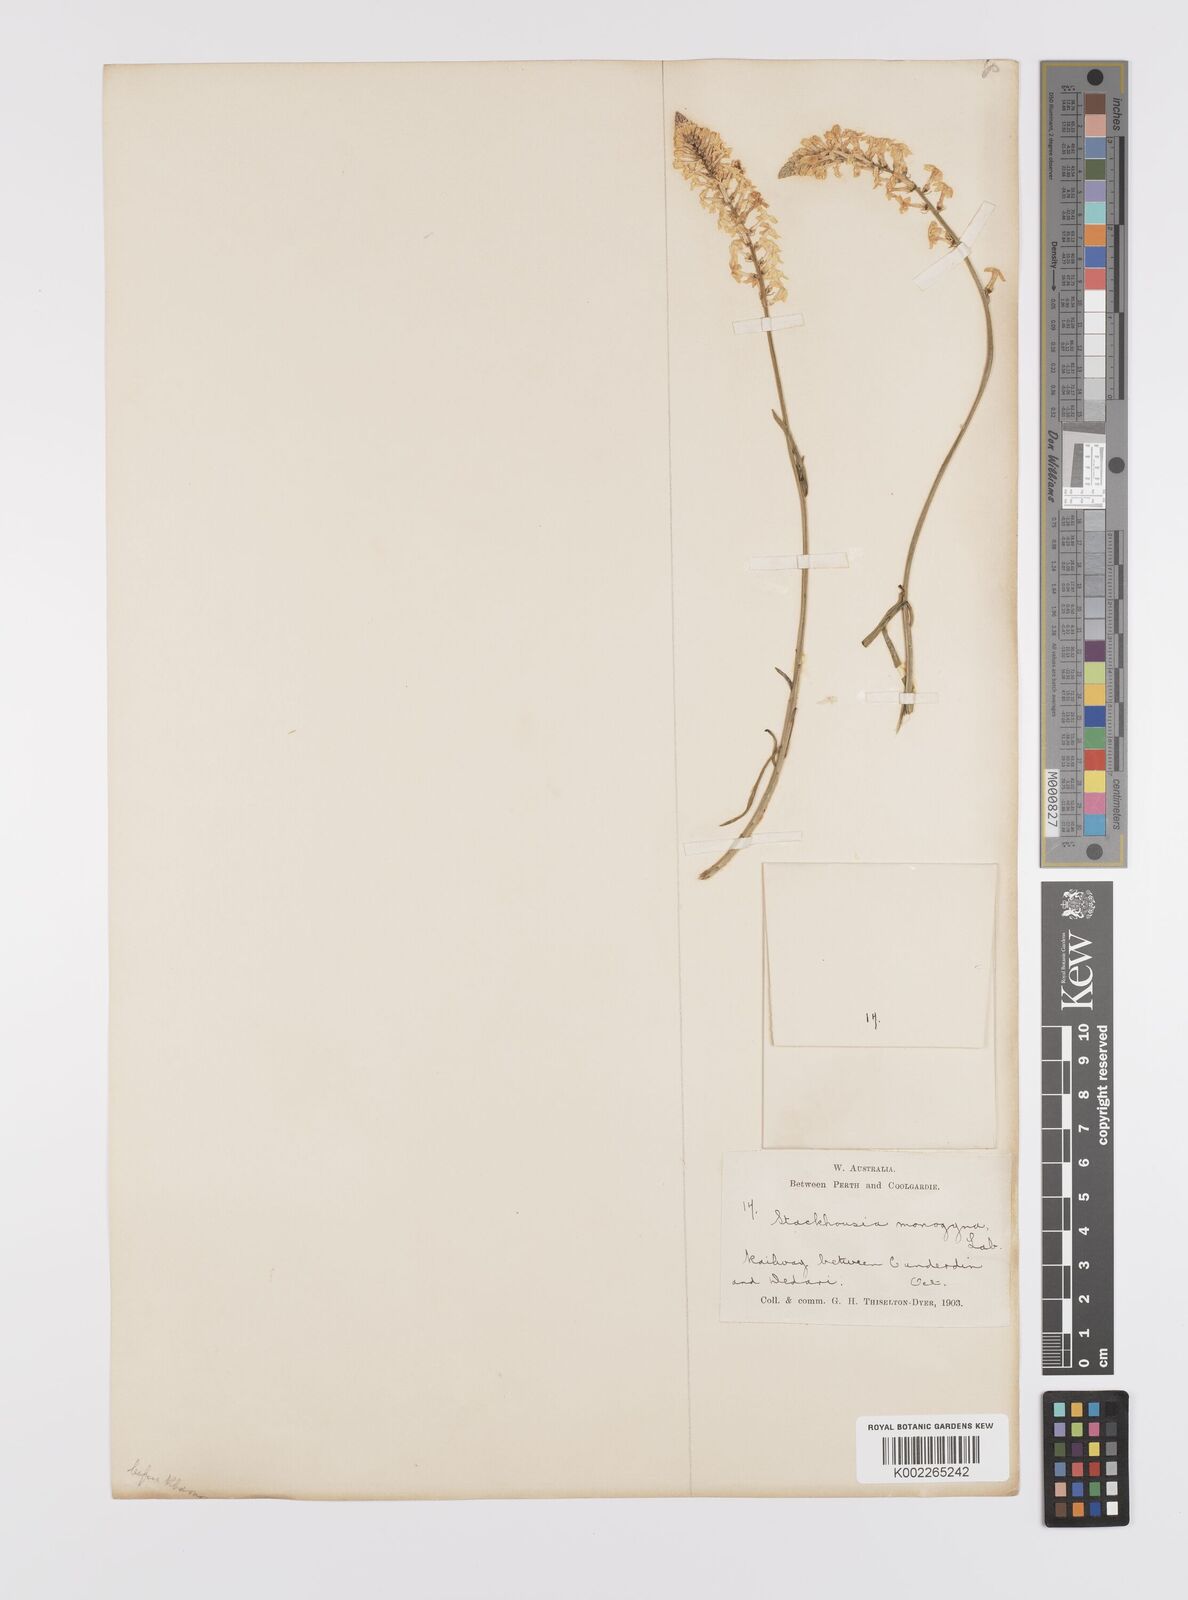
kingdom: Plantae
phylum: Tracheophyta
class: Magnoliopsida
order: Celastrales
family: Celastraceae
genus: Stackhousia
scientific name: Stackhousia monogyna
